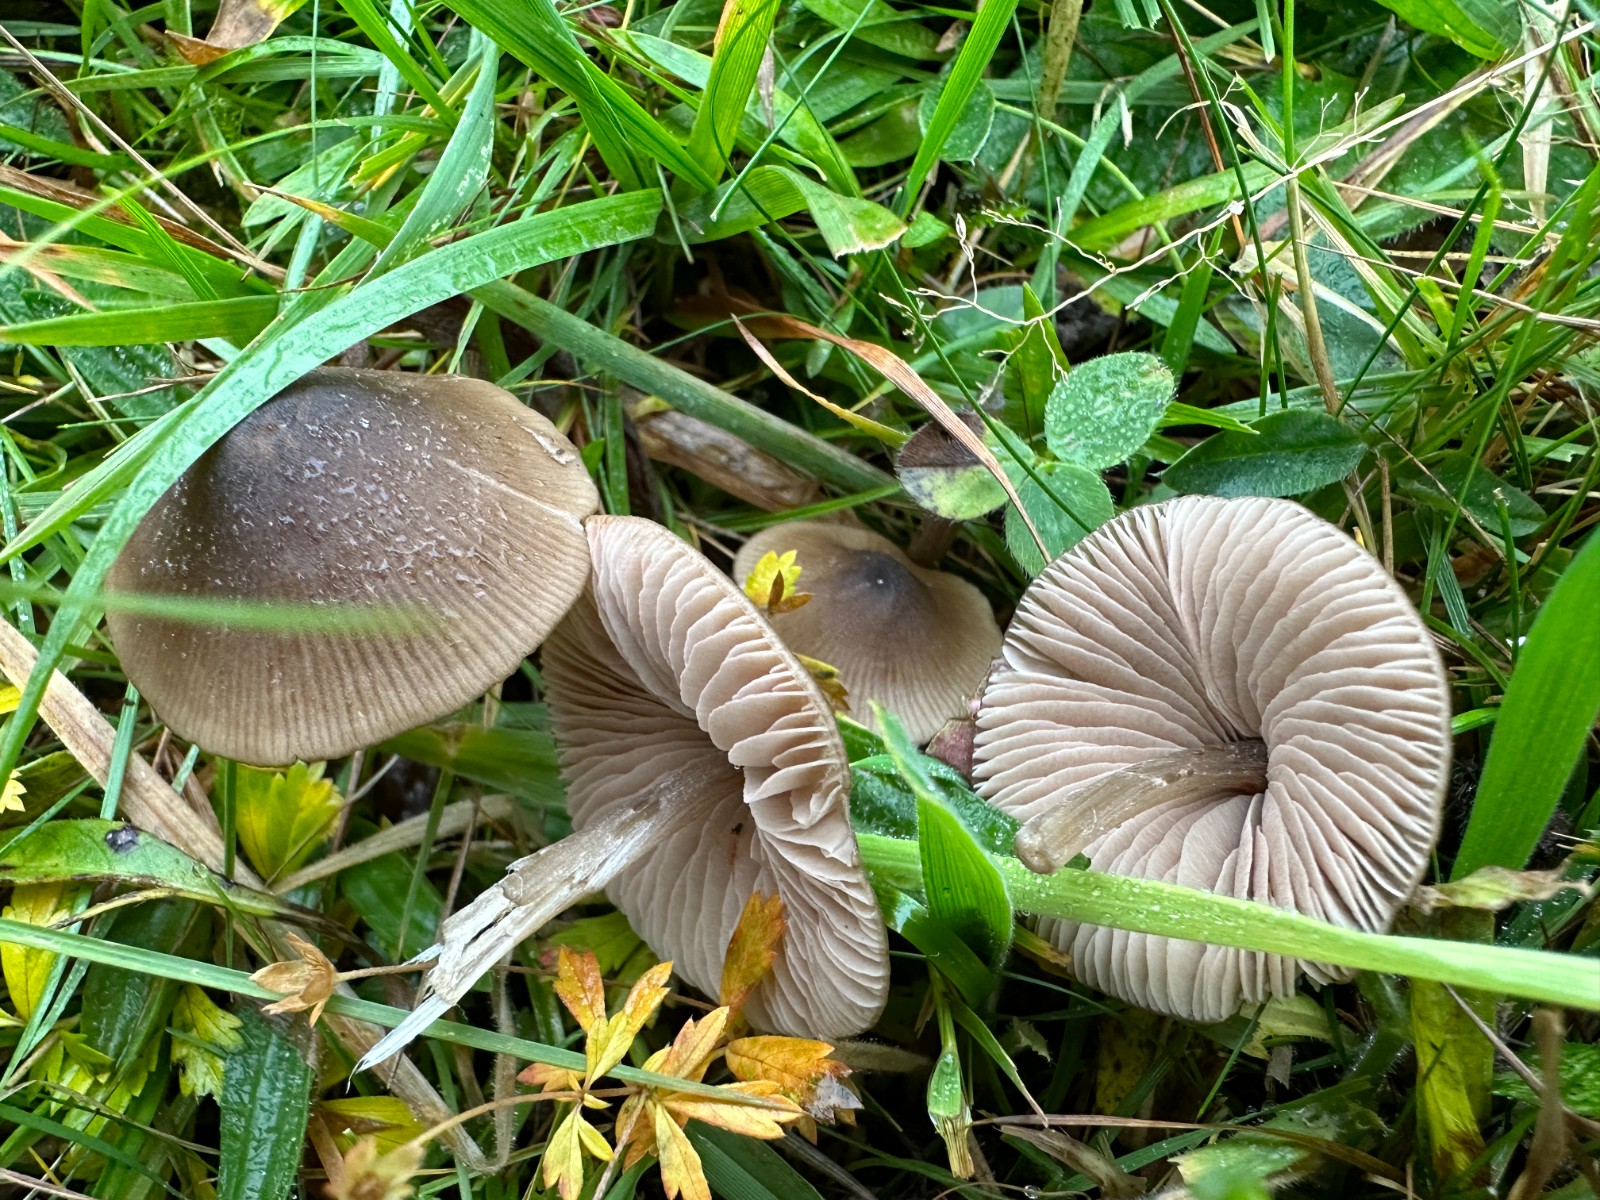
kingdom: Fungi
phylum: Basidiomycota
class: Agaricomycetes
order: Agaricales
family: Entolomataceae
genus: Entoloma
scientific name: Entoloma conferendum
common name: stjernesporet rødblad
